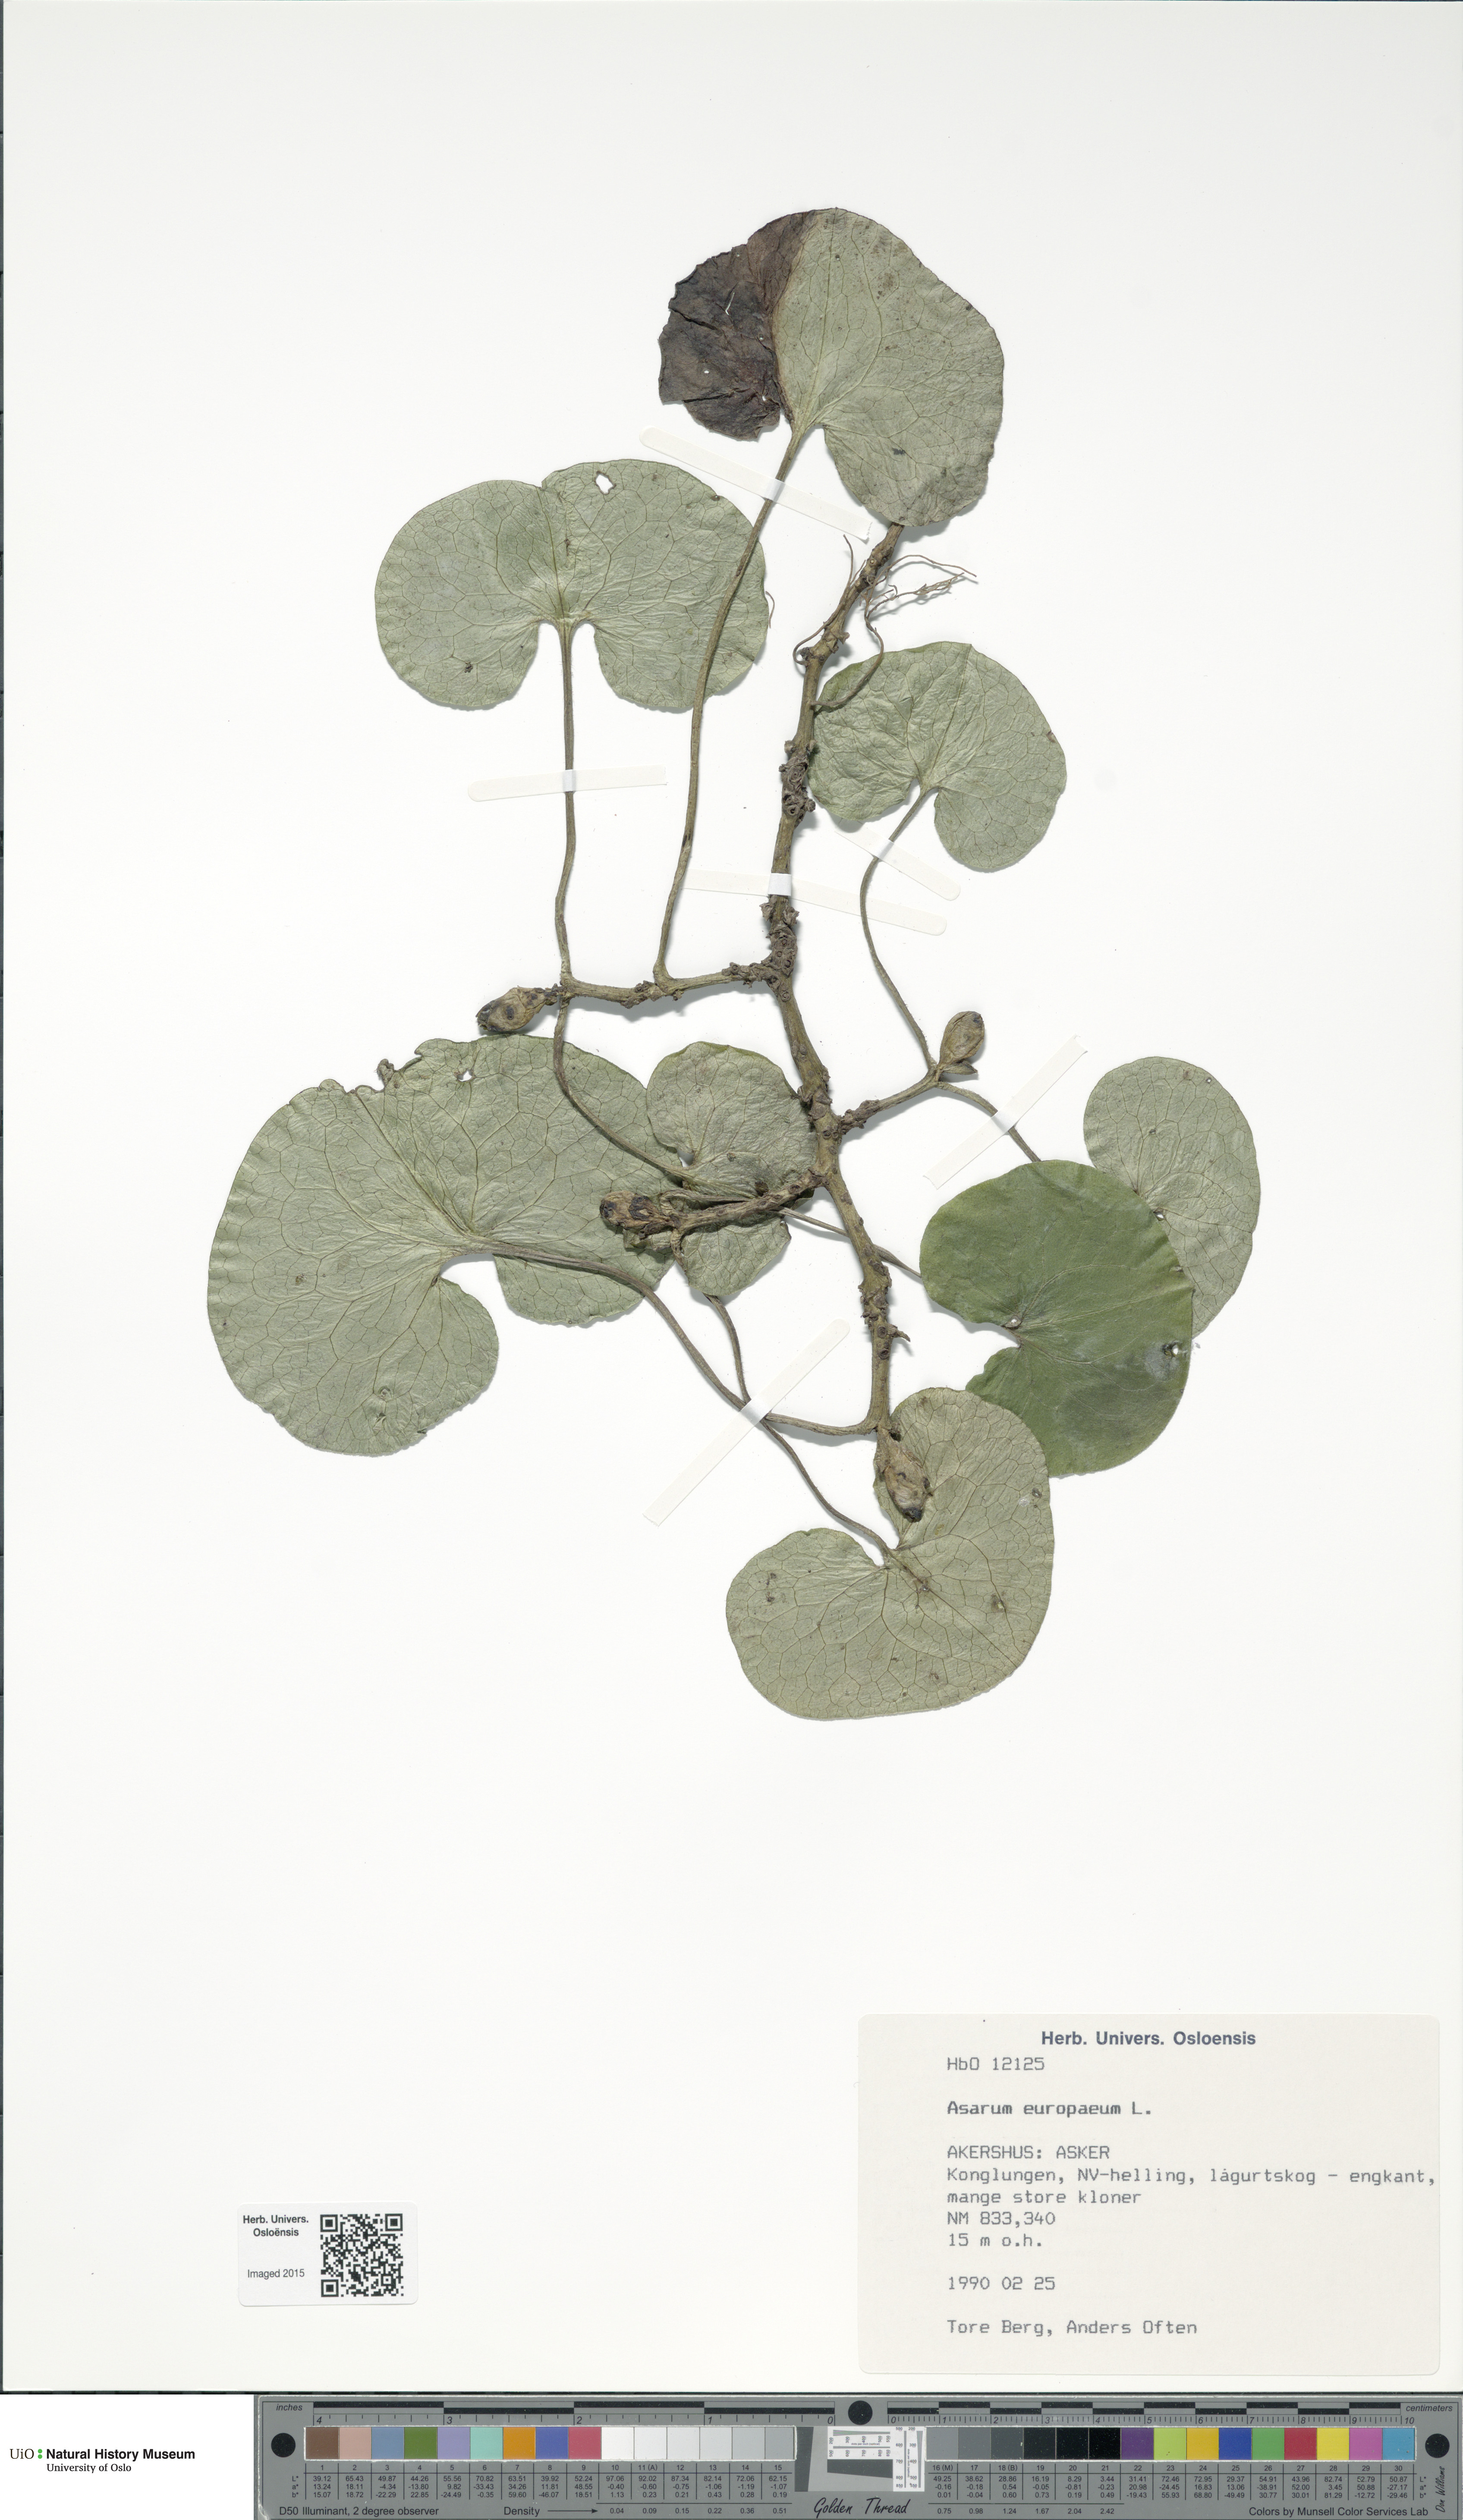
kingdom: Plantae
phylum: Tracheophyta
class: Magnoliopsida
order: Piperales
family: Aristolochiaceae
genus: Asarum
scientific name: Asarum europaeum
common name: Asarabacca
